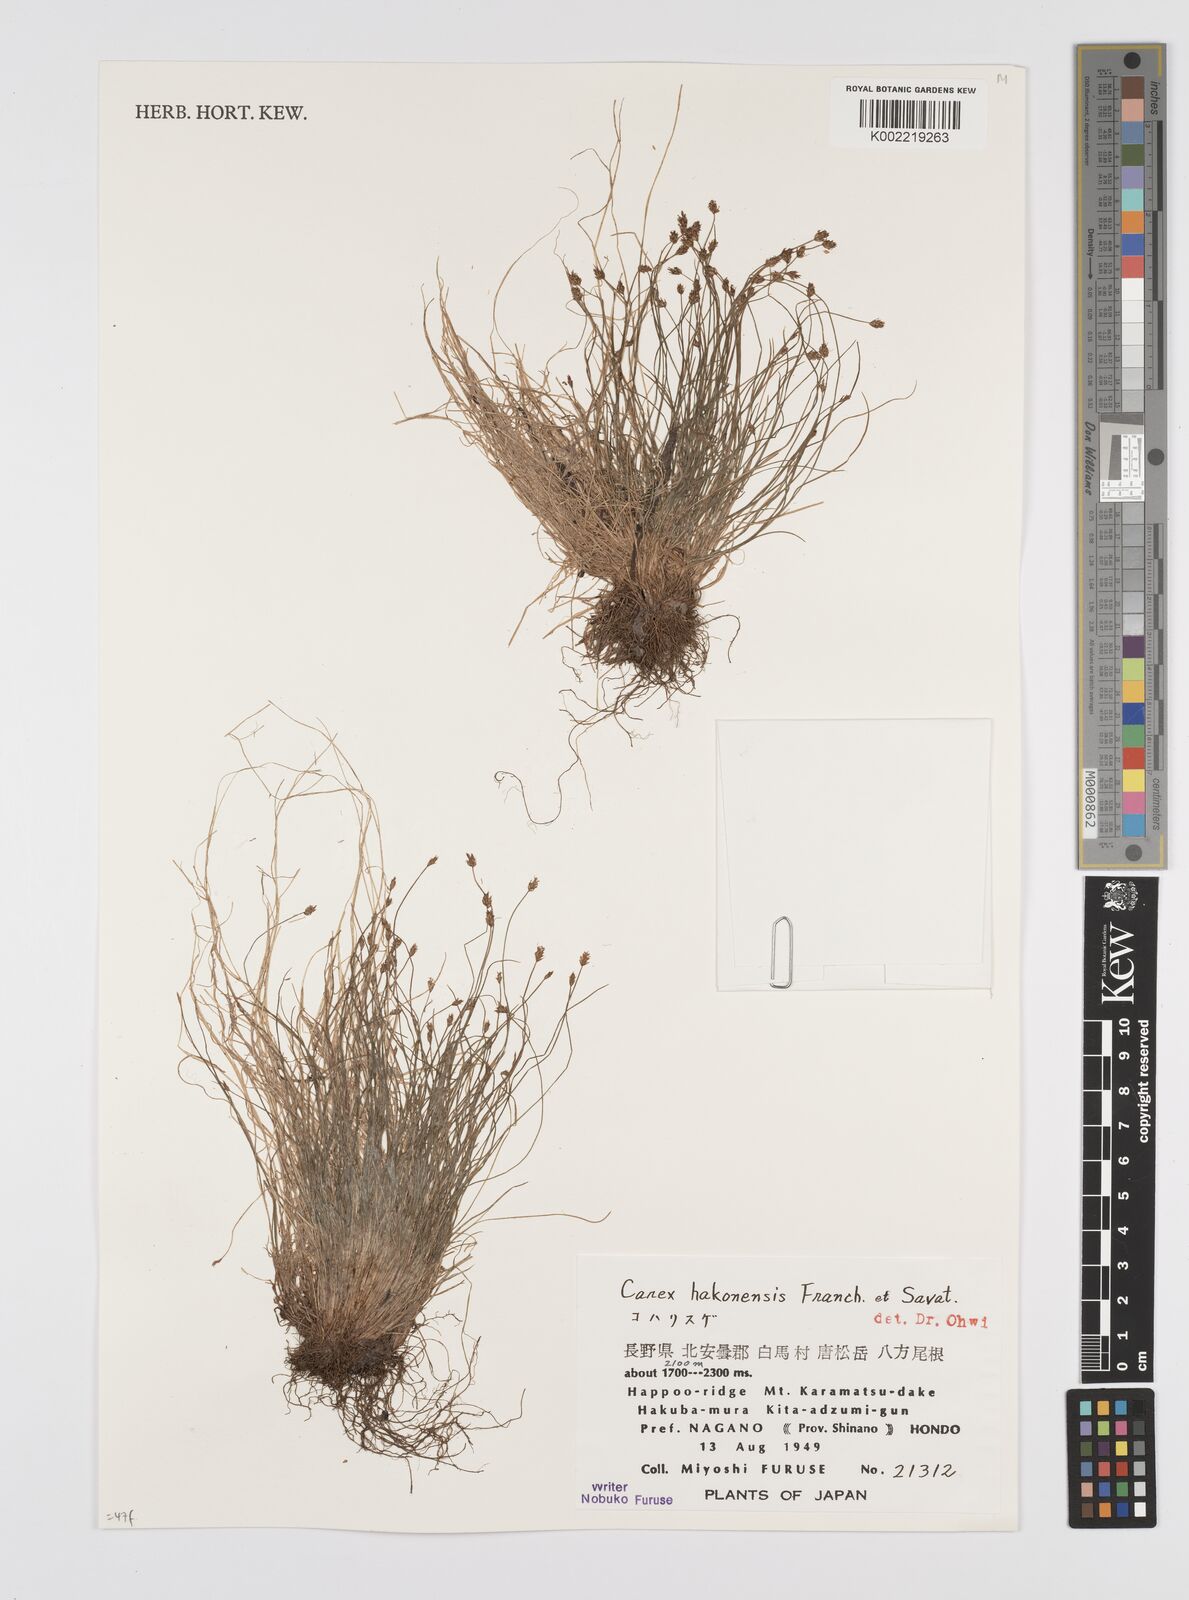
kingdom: Plantae
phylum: Tracheophyta
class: Liliopsida
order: Poales
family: Cyperaceae
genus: Carex
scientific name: Carex onoei
